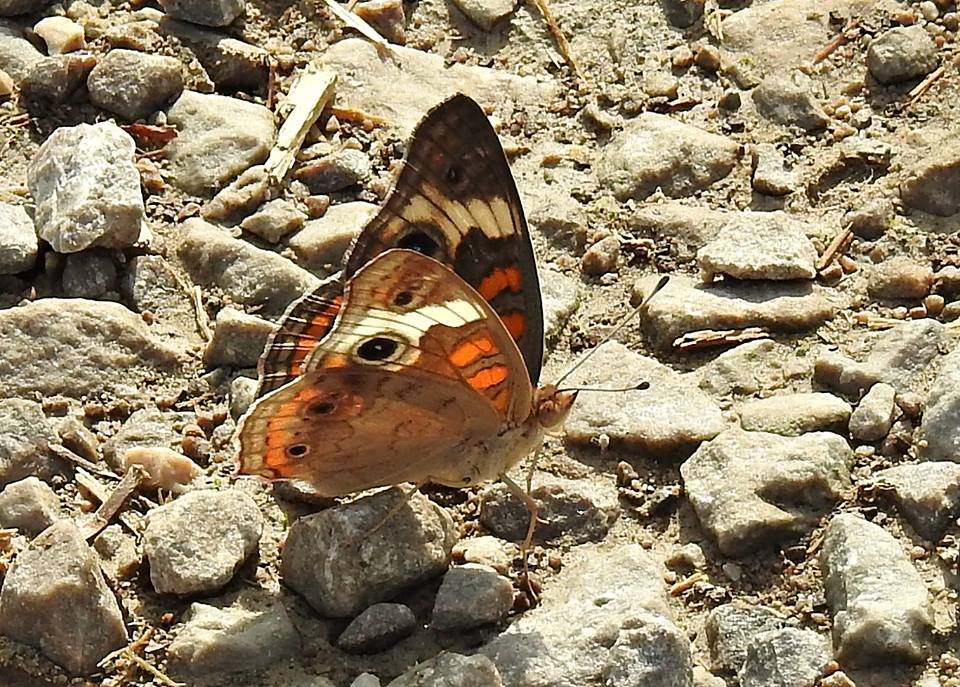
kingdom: Animalia
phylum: Arthropoda
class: Insecta
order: Lepidoptera
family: Nymphalidae
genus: Junonia
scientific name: Junonia coenia
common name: Common Buckeye
